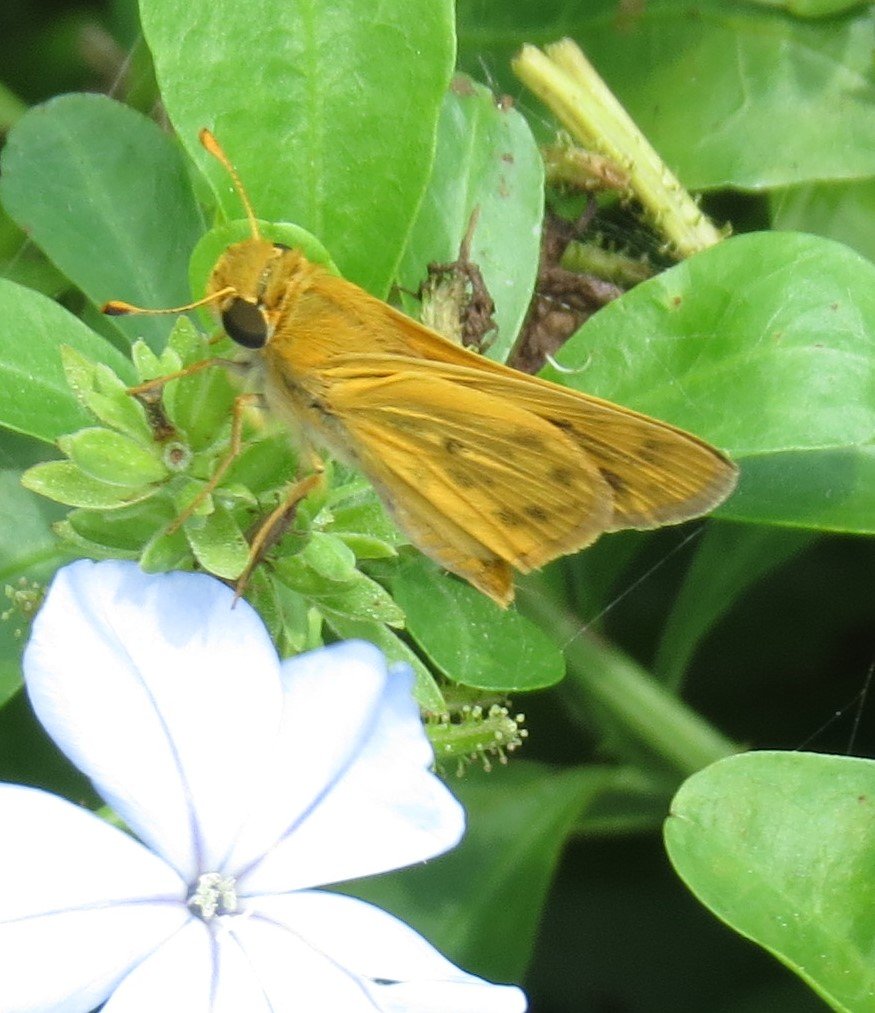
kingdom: Animalia
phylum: Arthropoda
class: Insecta
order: Lepidoptera
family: Hesperiidae
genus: Hylephila
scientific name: Hylephila phyleus
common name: Fiery Skipper
